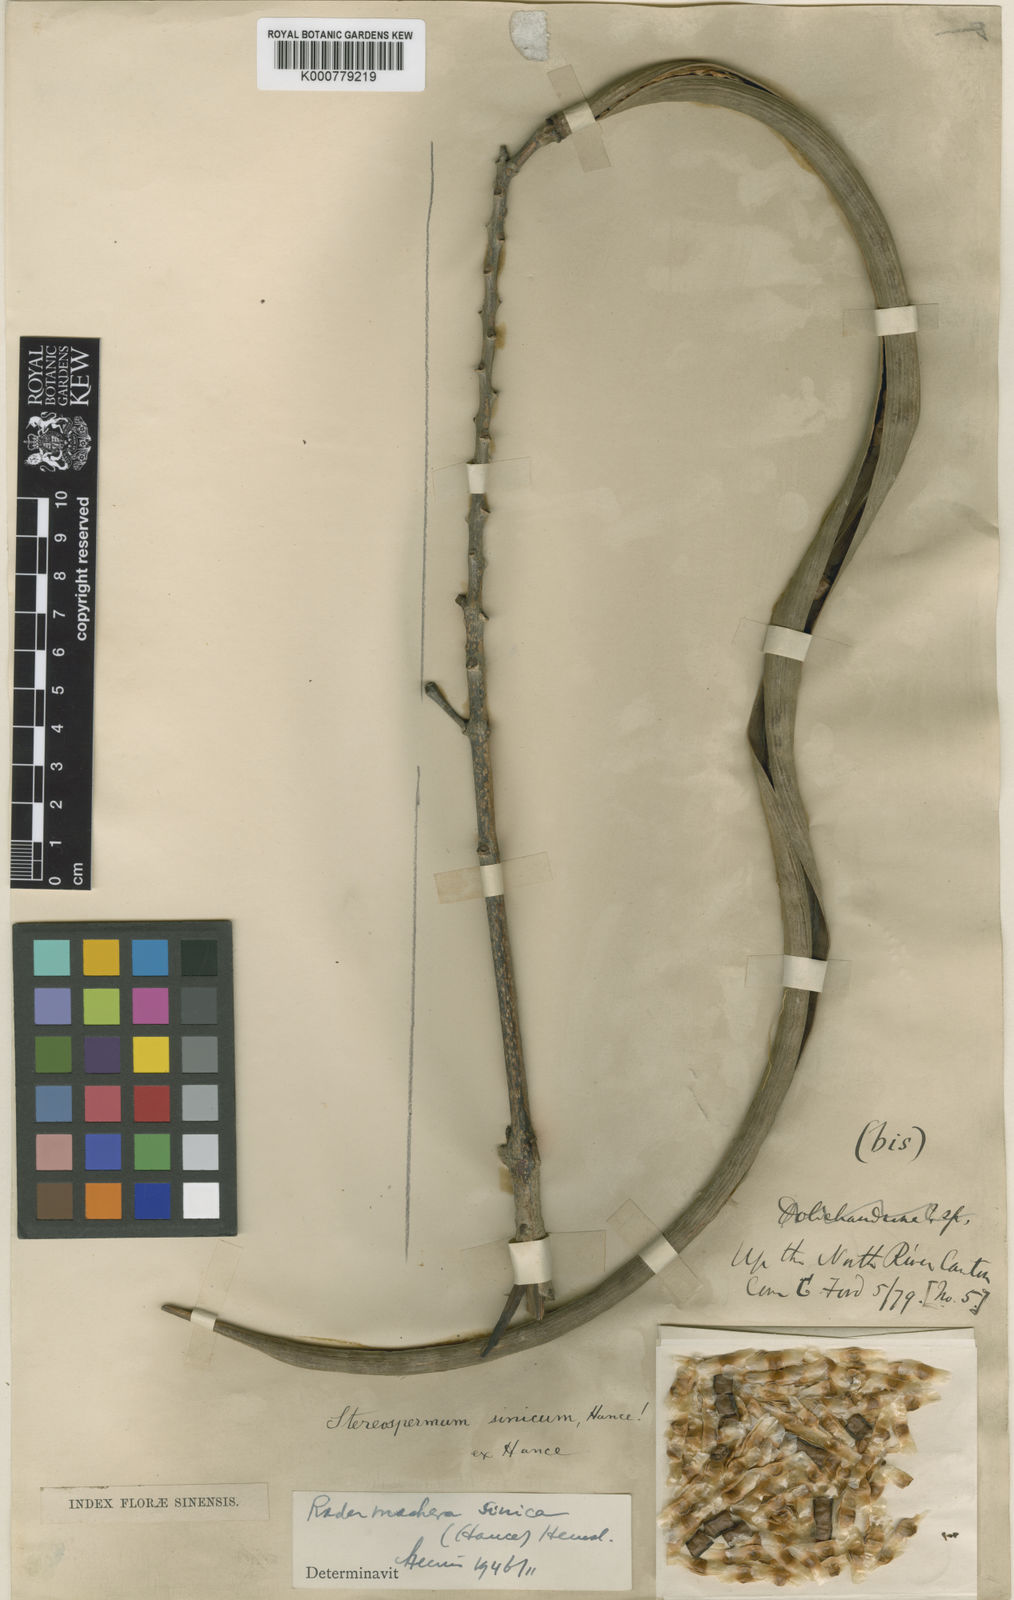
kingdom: Plantae
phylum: Tracheophyta
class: Magnoliopsida
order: Lamiales
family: Bignoniaceae
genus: Radermachera
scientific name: Radermachera sinica
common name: China doll plant
